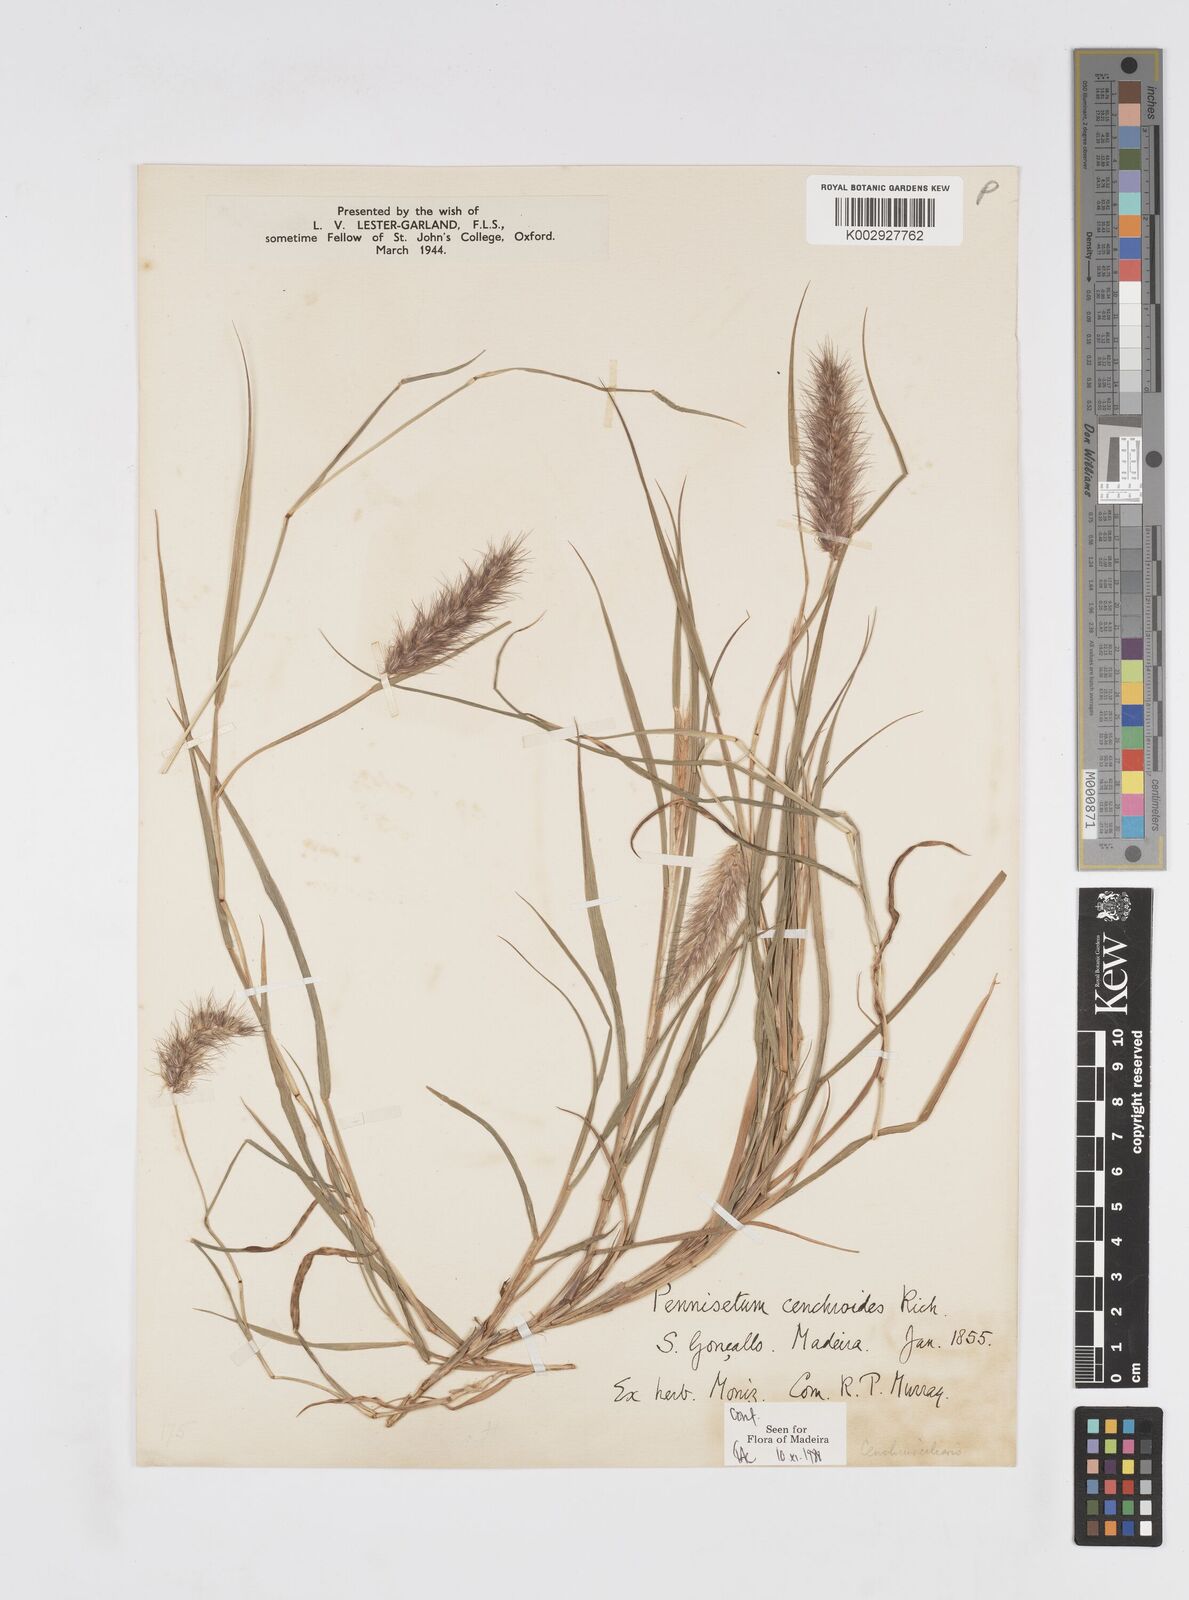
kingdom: Plantae
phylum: Tracheophyta
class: Liliopsida
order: Poales
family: Poaceae
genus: Cenchrus
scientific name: Cenchrus ciliaris
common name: Buffelgrass
